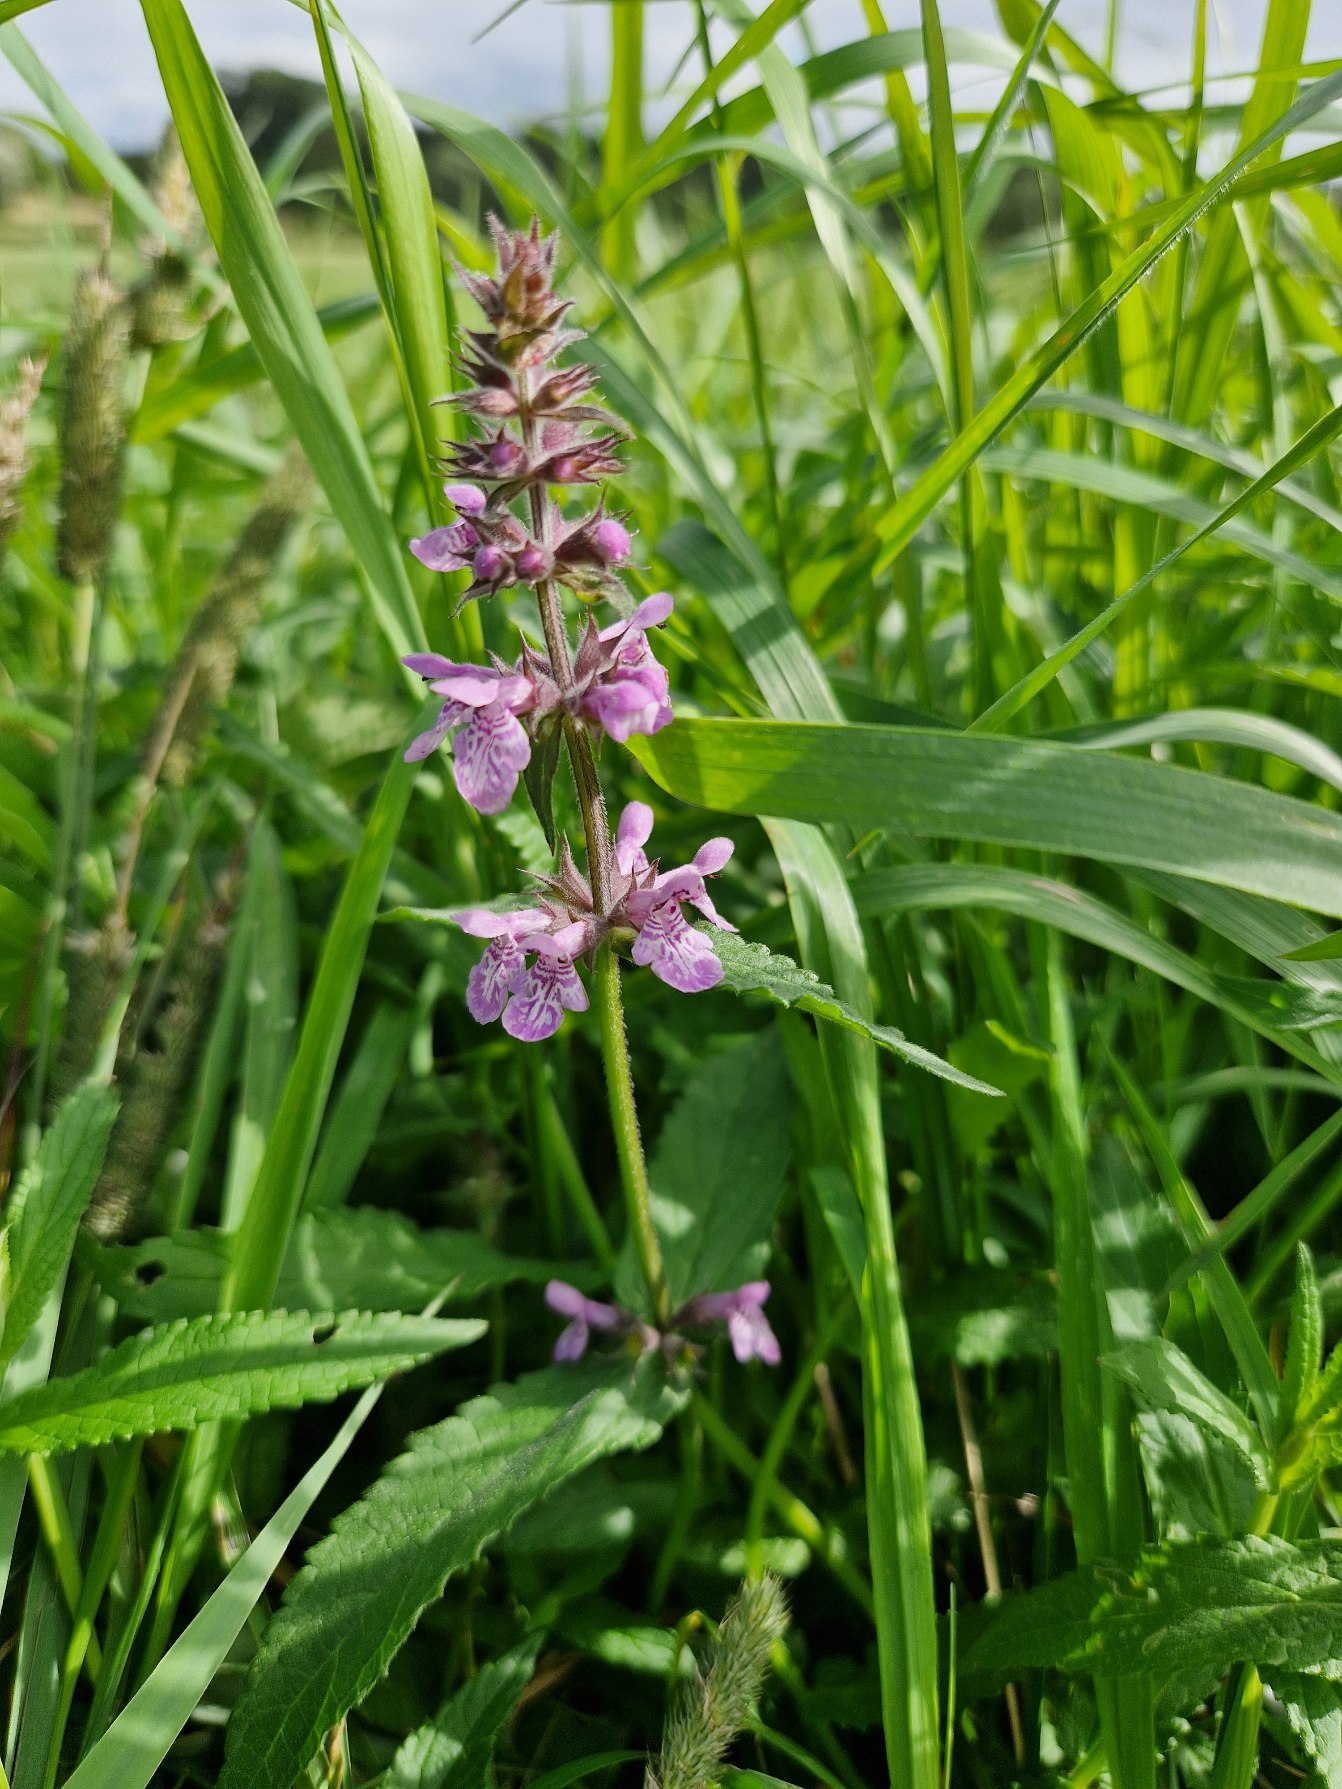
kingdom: Plantae
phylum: Tracheophyta
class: Magnoliopsida
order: Lamiales
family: Lamiaceae
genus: Stachys
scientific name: Stachys palustris
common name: Kær-galtetand
